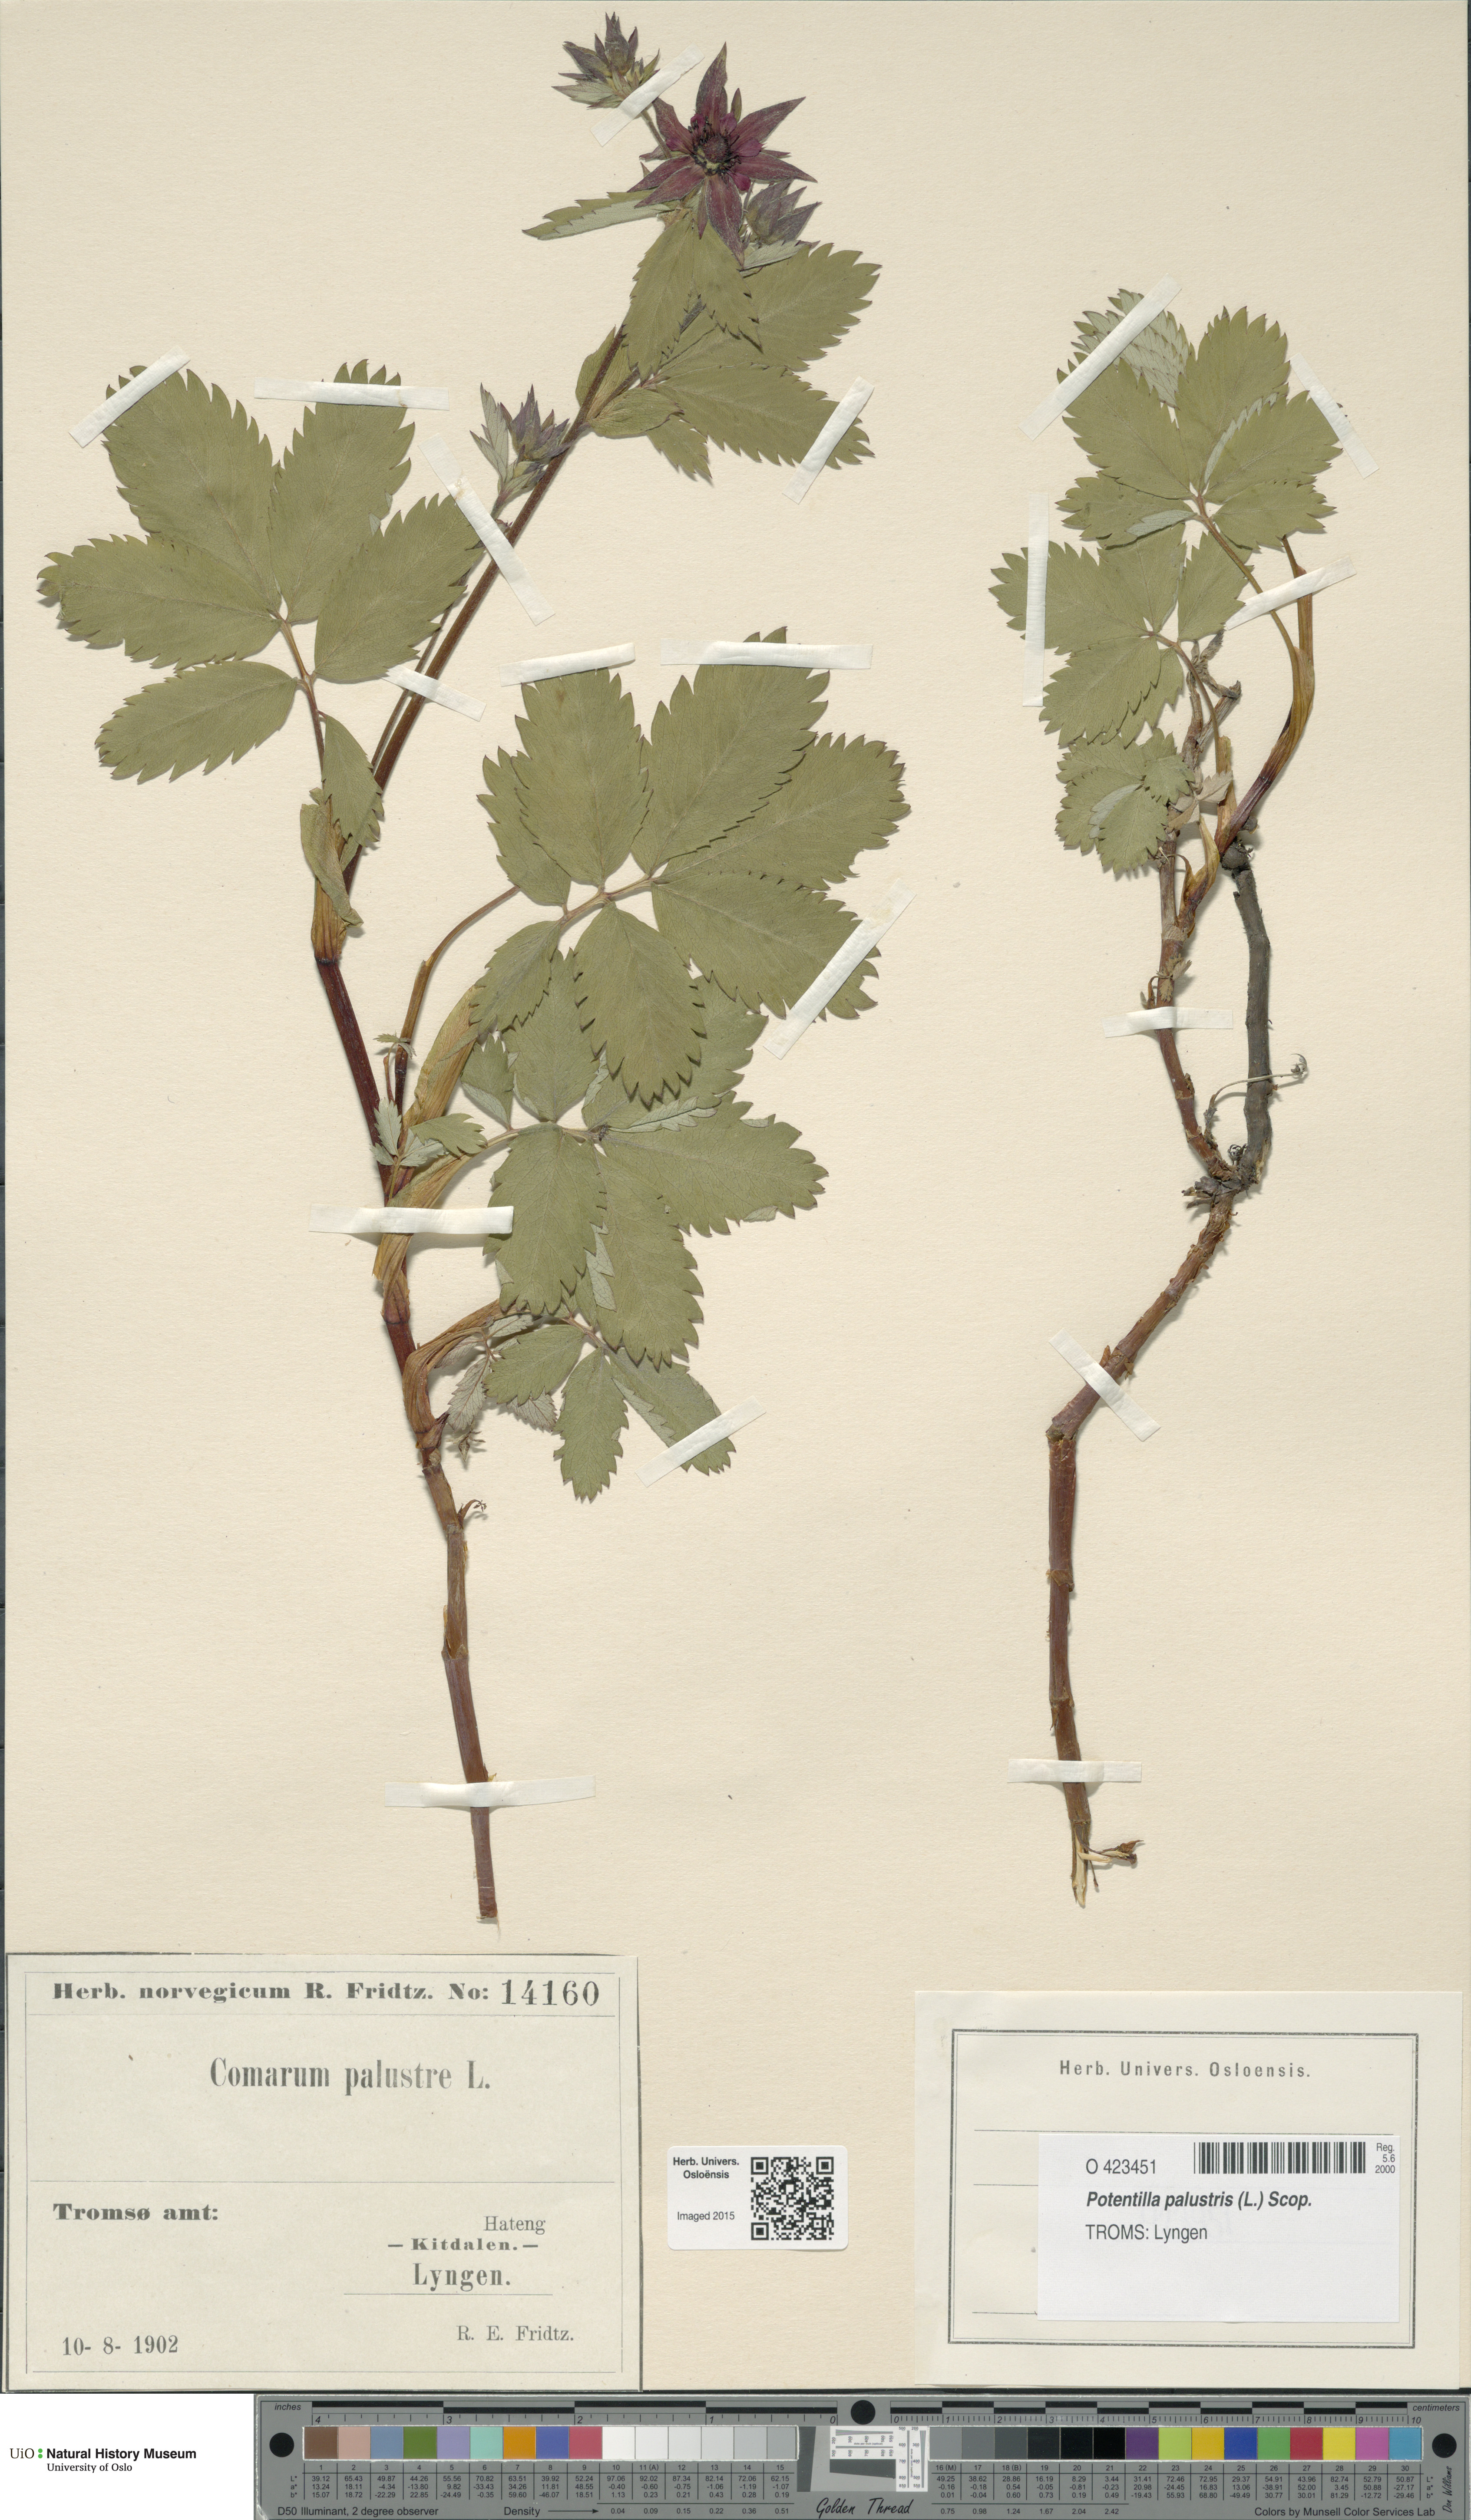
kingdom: Plantae
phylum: Tracheophyta
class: Magnoliopsida
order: Rosales
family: Rosaceae
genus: Comarum
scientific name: Comarum palustre
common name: Marsh cinquefoil
